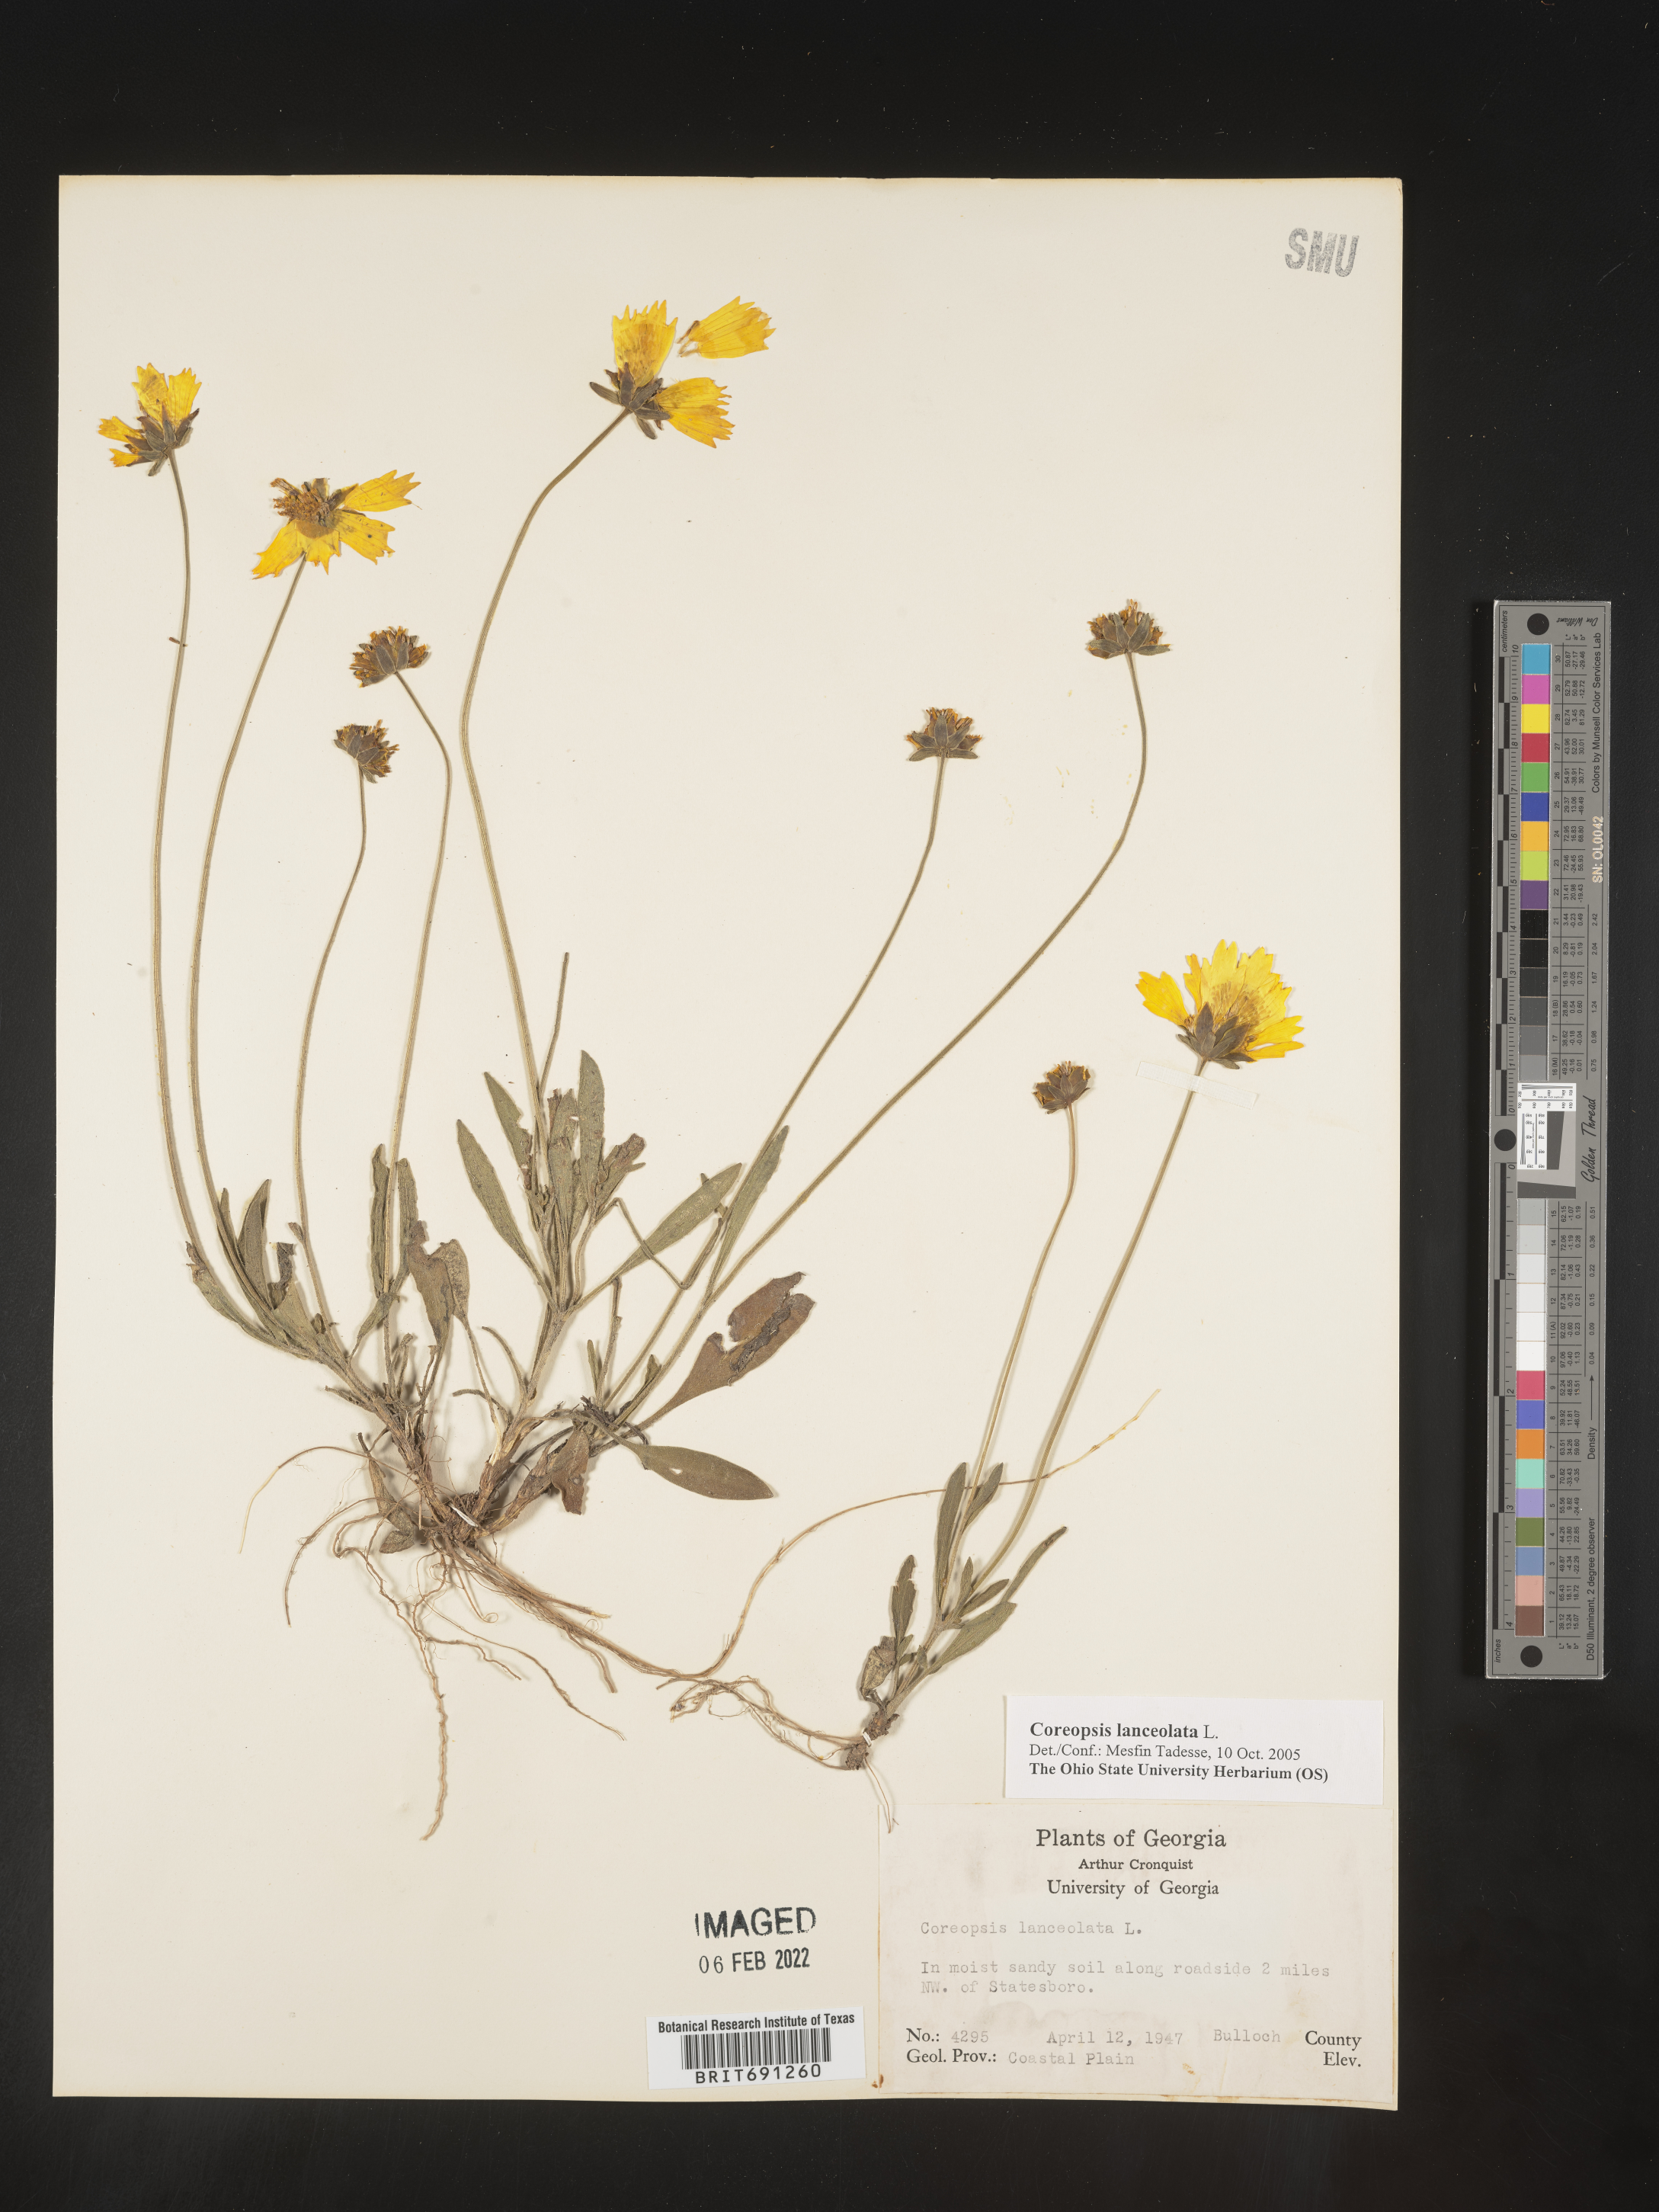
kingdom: Plantae
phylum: Tracheophyta
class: Magnoliopsida
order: Asterales
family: Asteraceae
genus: Coreopsis
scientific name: Coreopsis lanceolata
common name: Garden coreopsis
